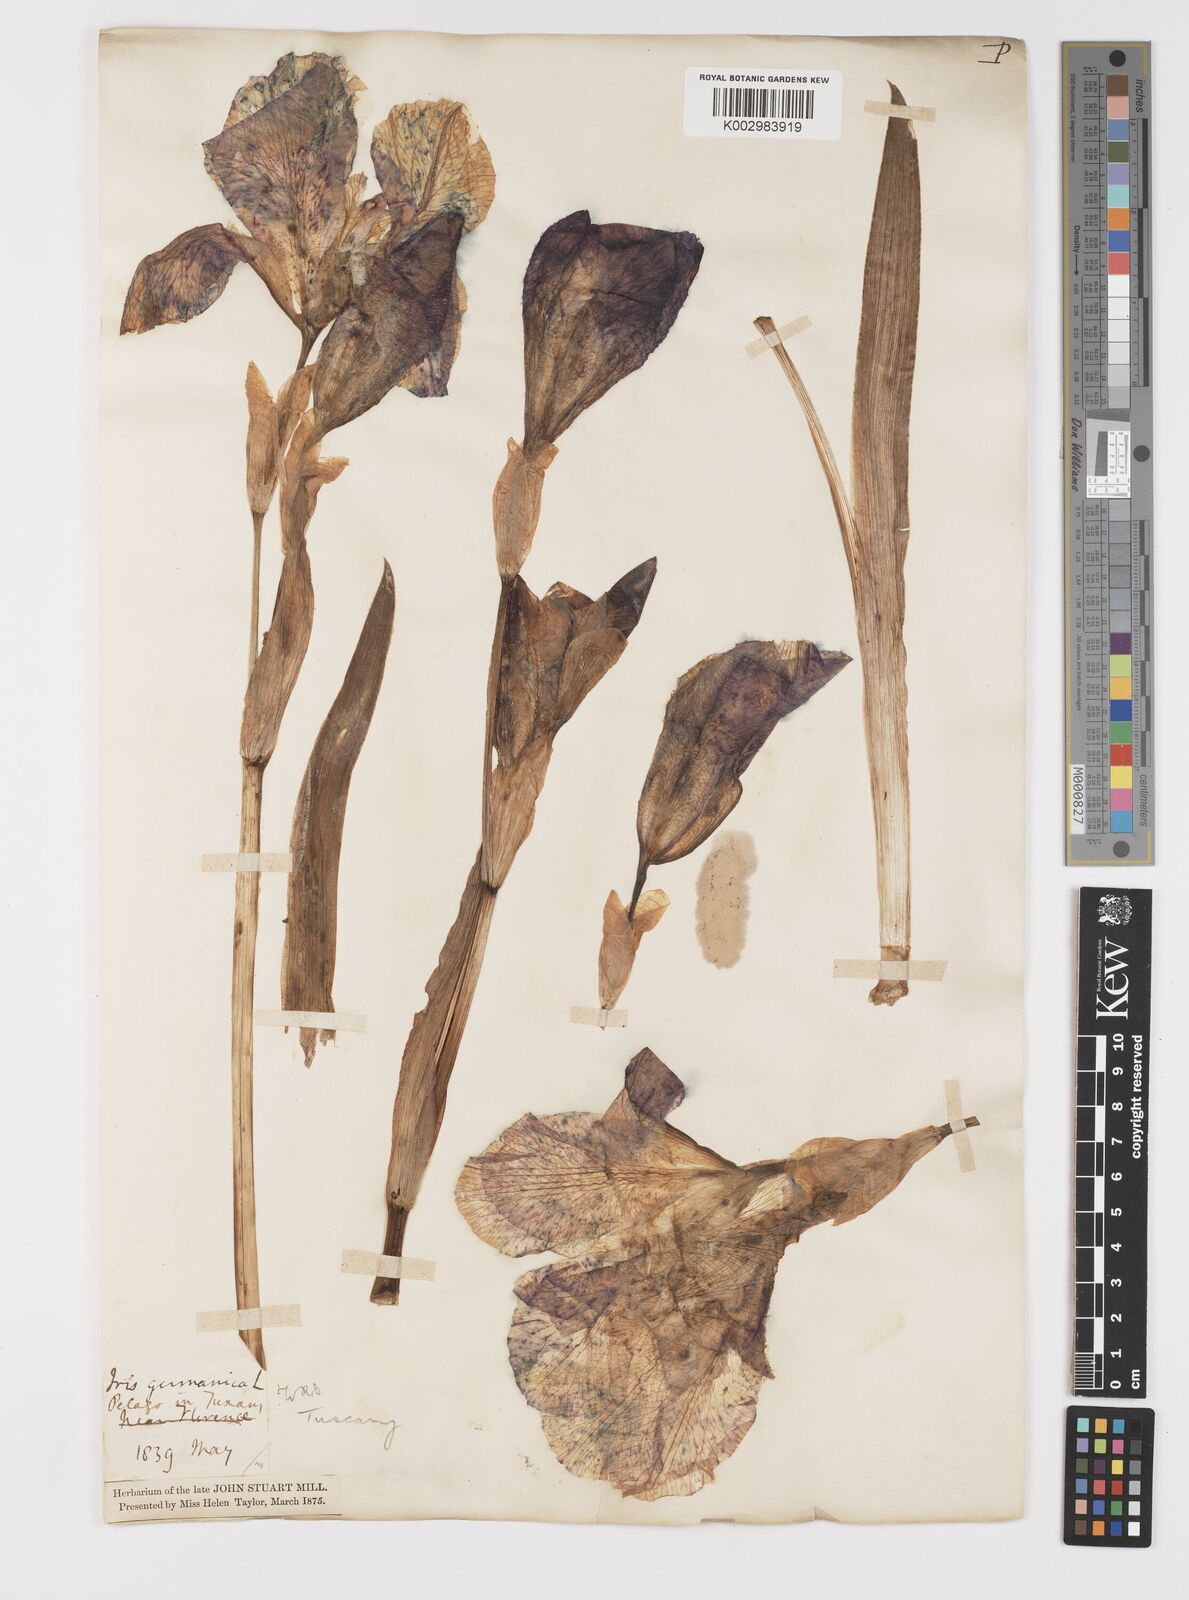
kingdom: Plantae
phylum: Tracheophyta
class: Liliopsida
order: Asparagales
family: Iridaceae
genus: Iris
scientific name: Iris germanica
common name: German iris
